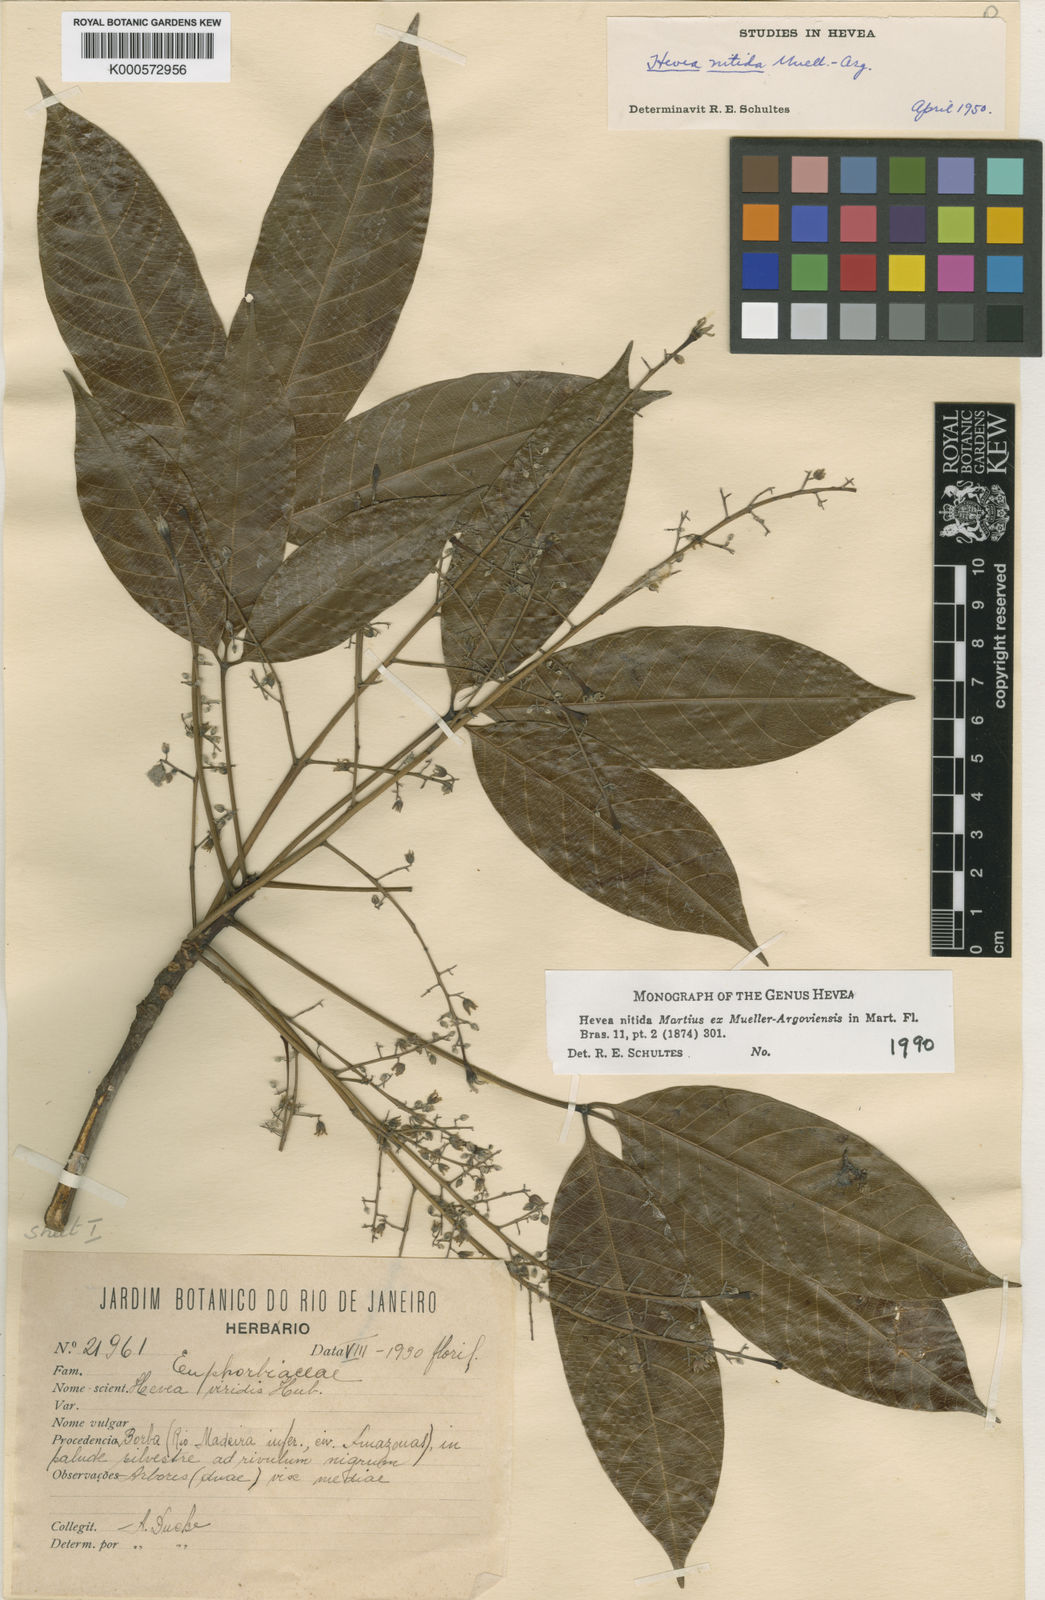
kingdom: Plantae
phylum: Tracheophyta
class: Magnoliopsida
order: Malpighiales
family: Euphorbiaceae
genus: Hevea
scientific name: Hevea nitida
